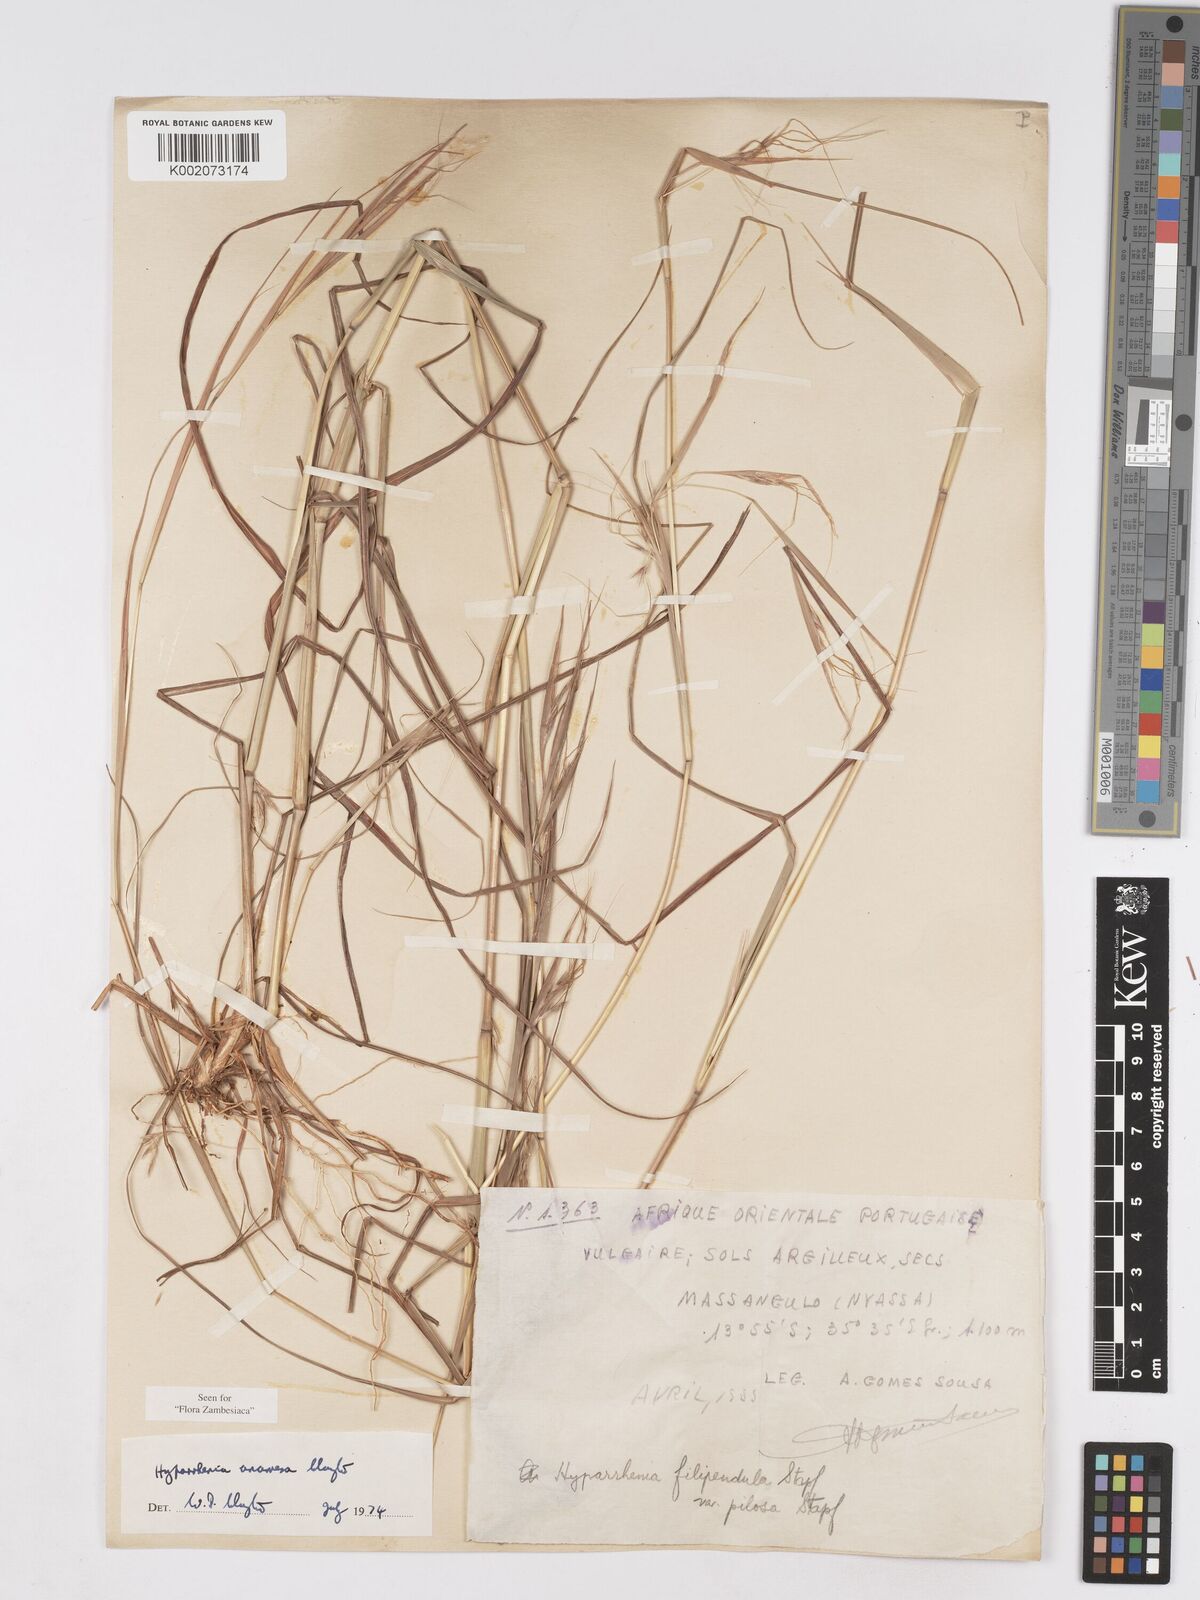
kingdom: Plantae
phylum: Tracheophyta
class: Liliopsida
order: Poales
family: Poaceae
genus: Hyparrhenia
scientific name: Hyparrhenia anamesa
